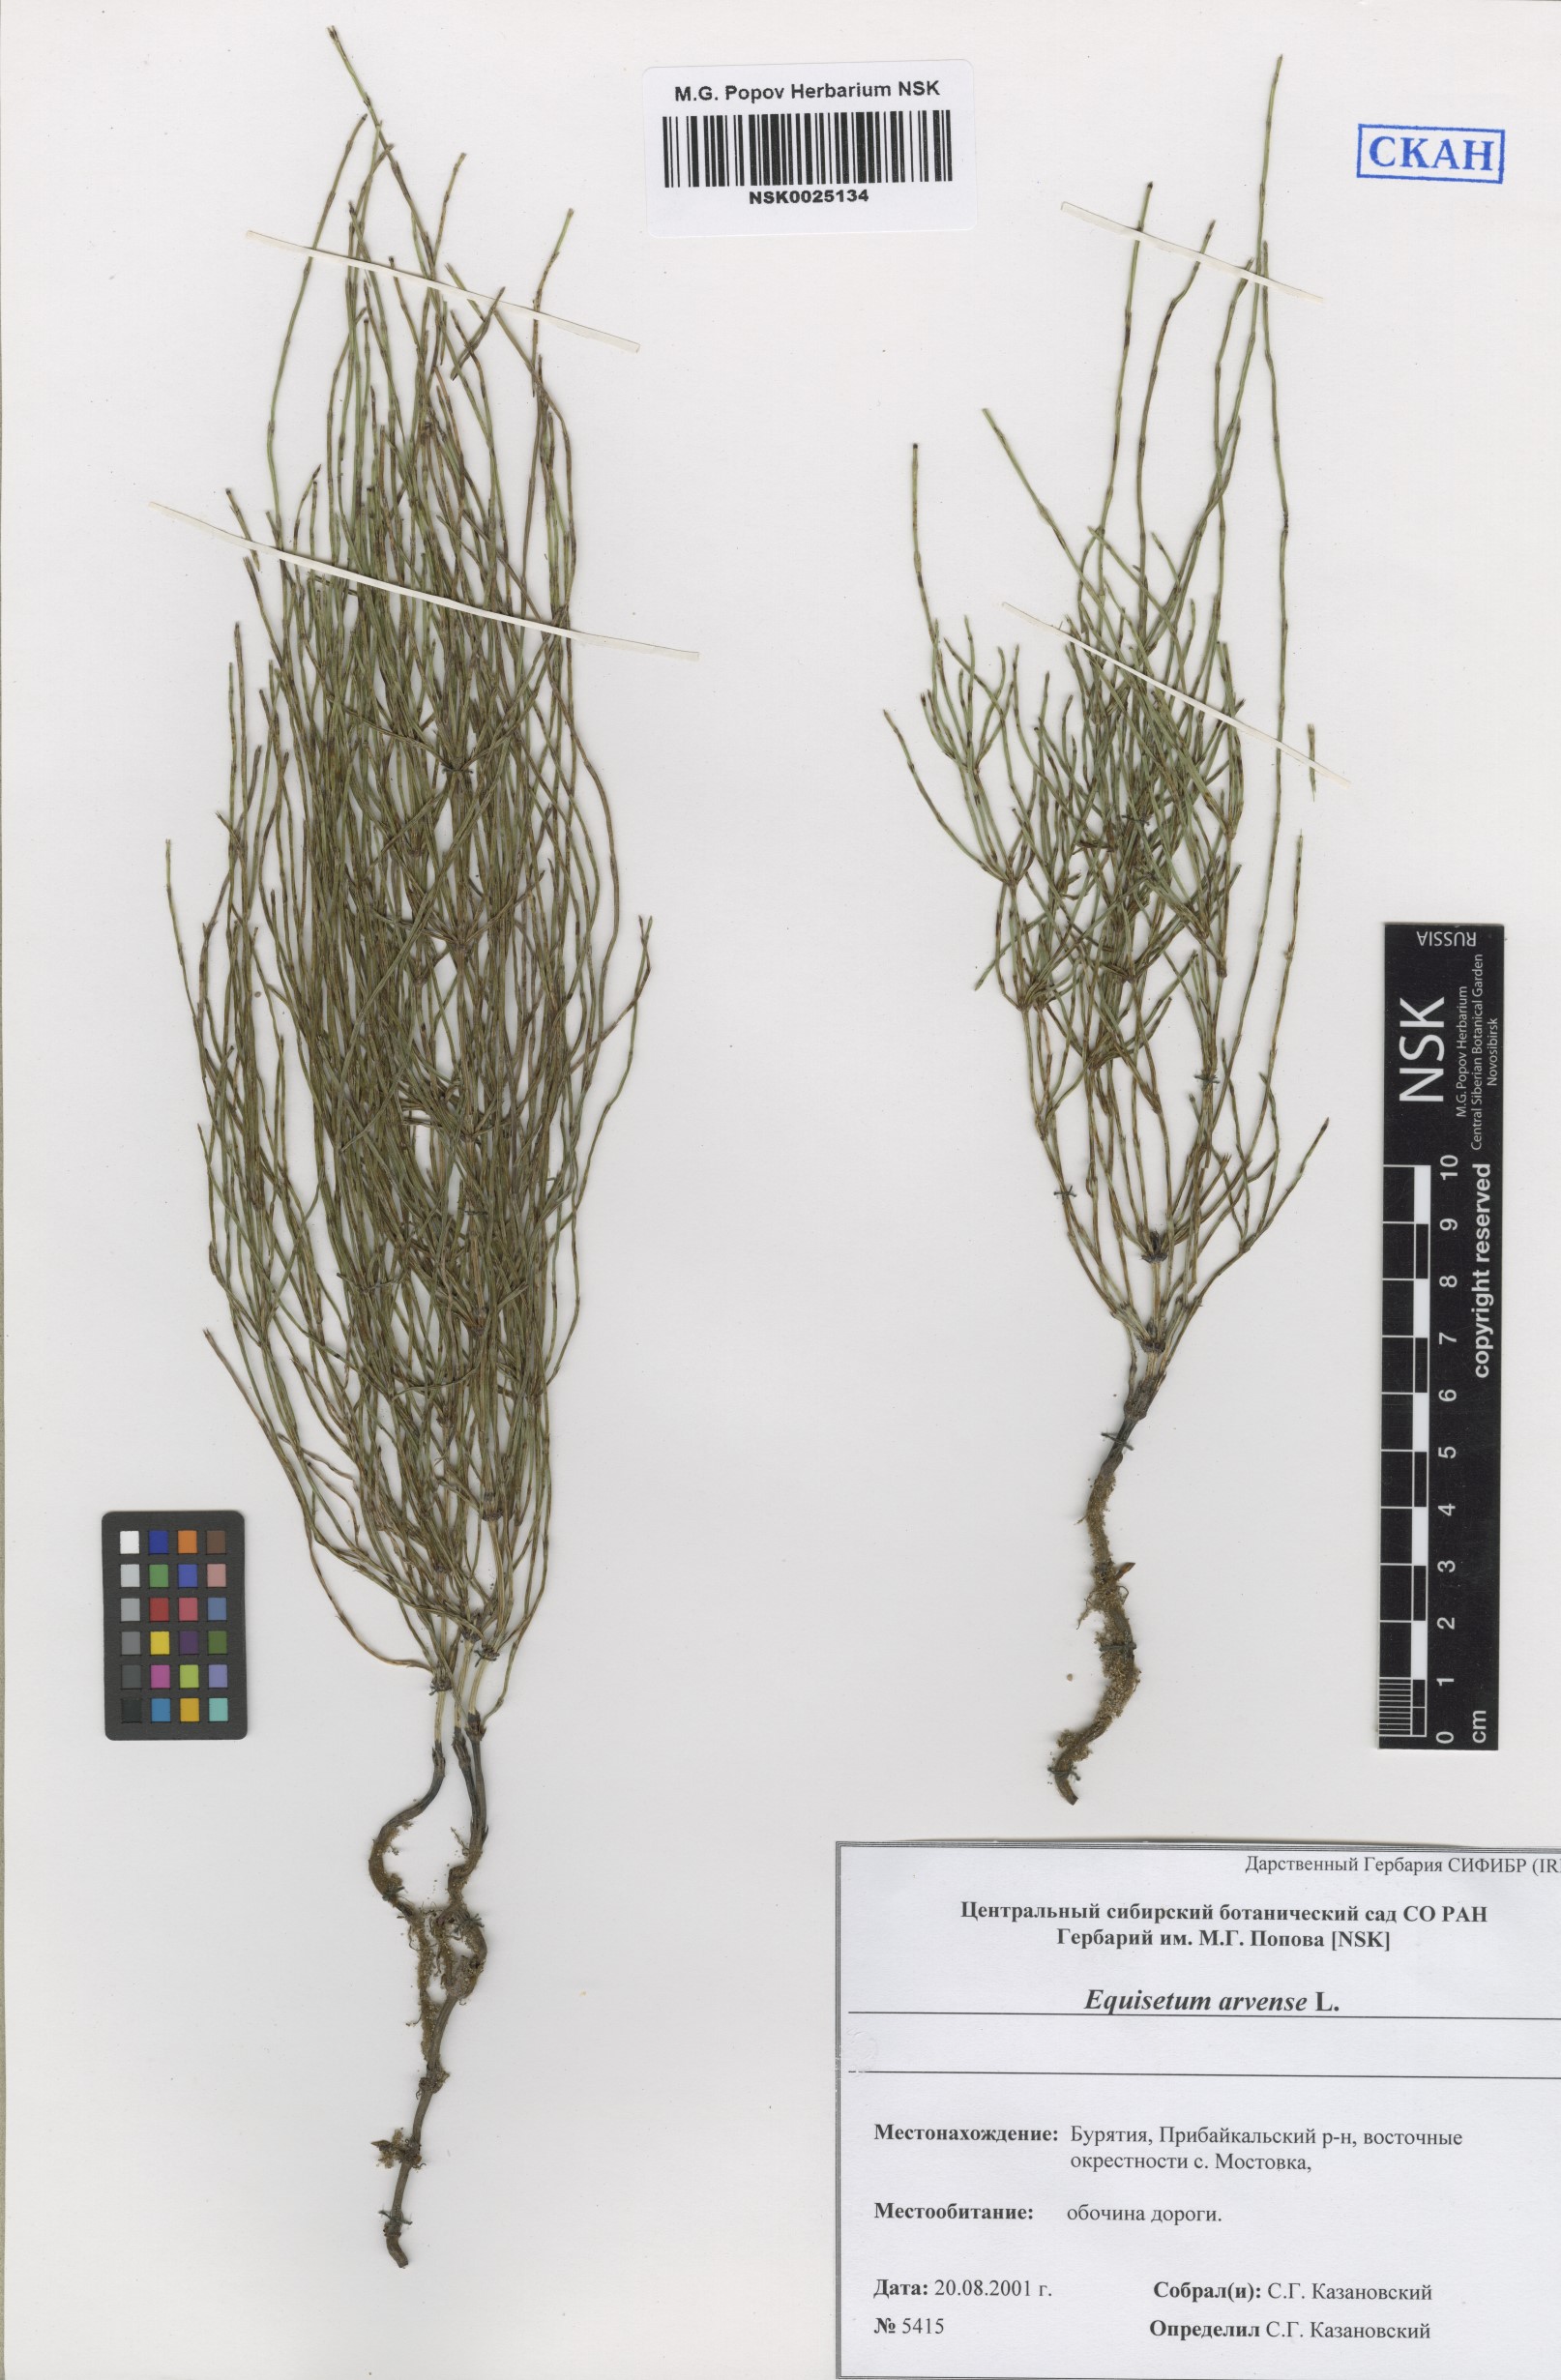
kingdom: Plantae
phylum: Tracheophyta
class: Polypodiopsida
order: Equisetales
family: Equisetaceae
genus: Equisetum
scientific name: Equisetum arvense
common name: Field horsetail
